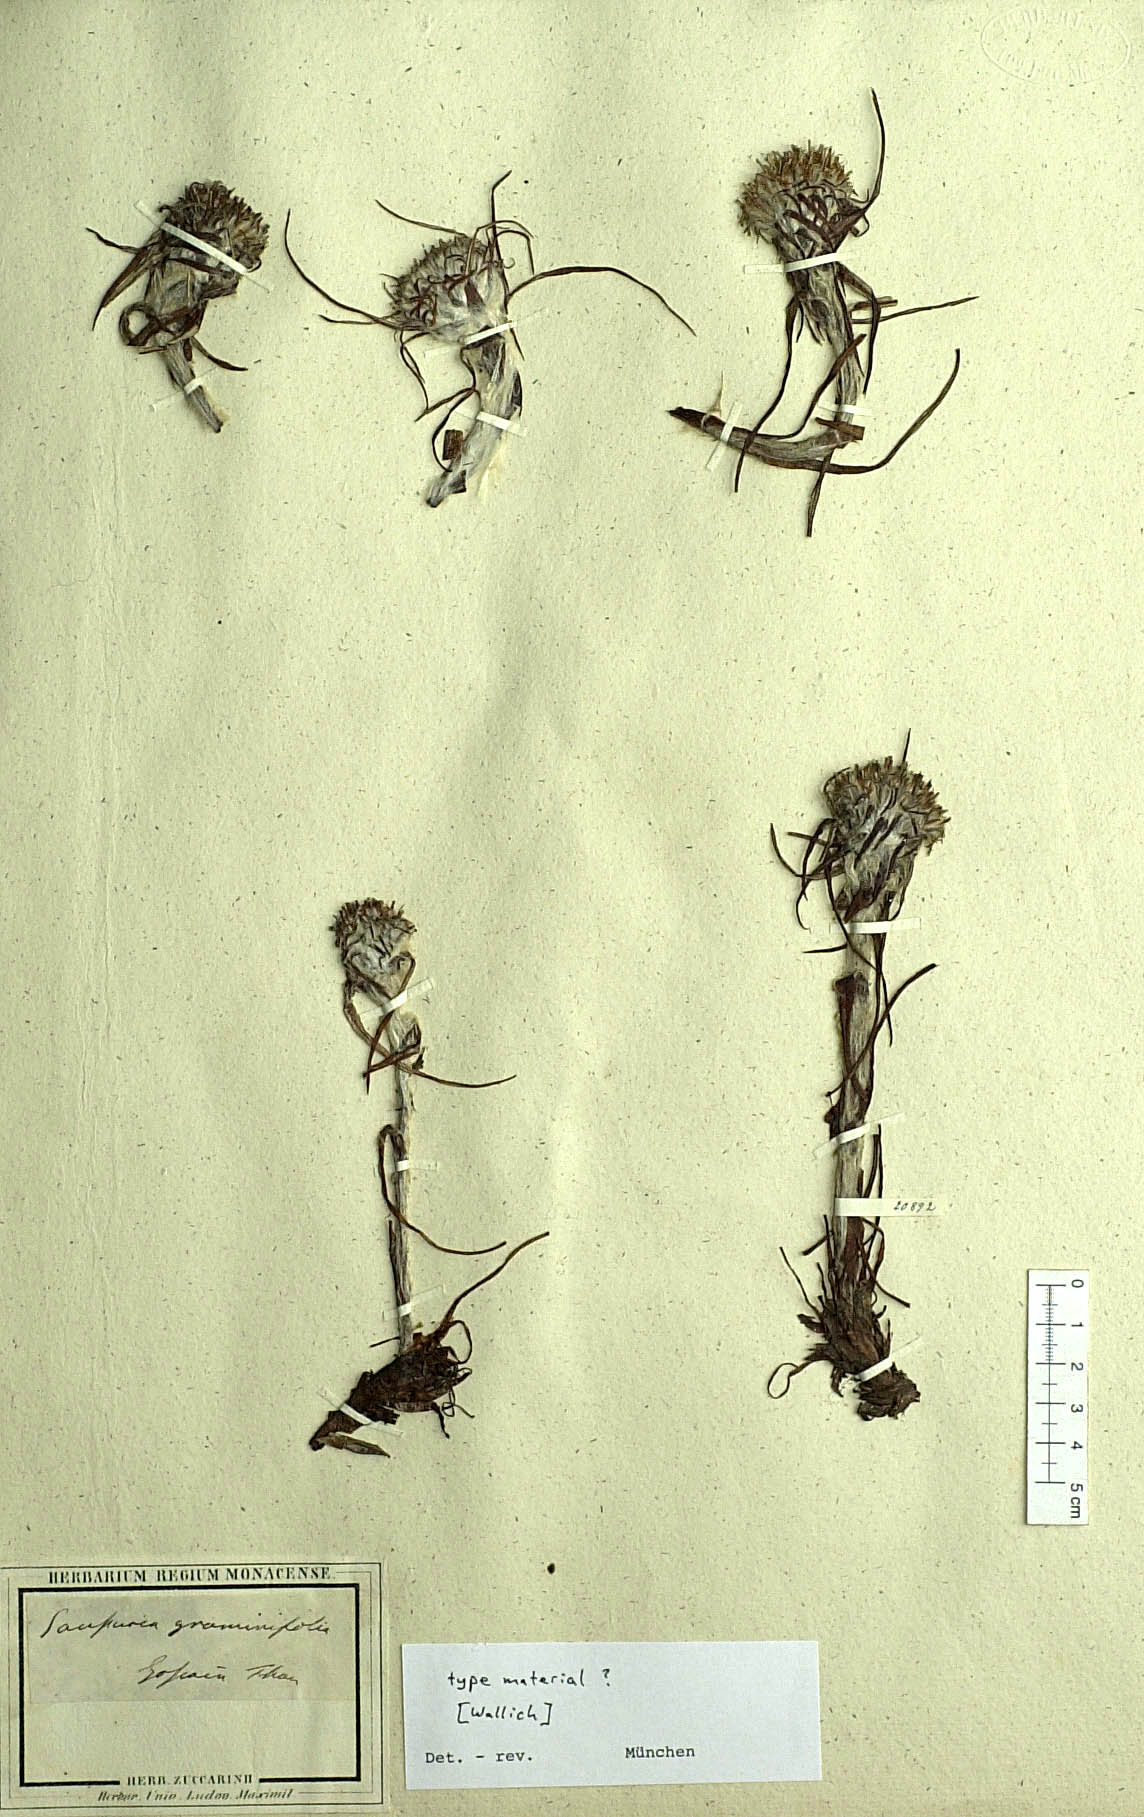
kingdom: Plantae
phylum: Tracheophyta
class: Magnoliopsida
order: Asterales
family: Asteraceae
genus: Saussurea
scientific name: Saussurea graminifolia
